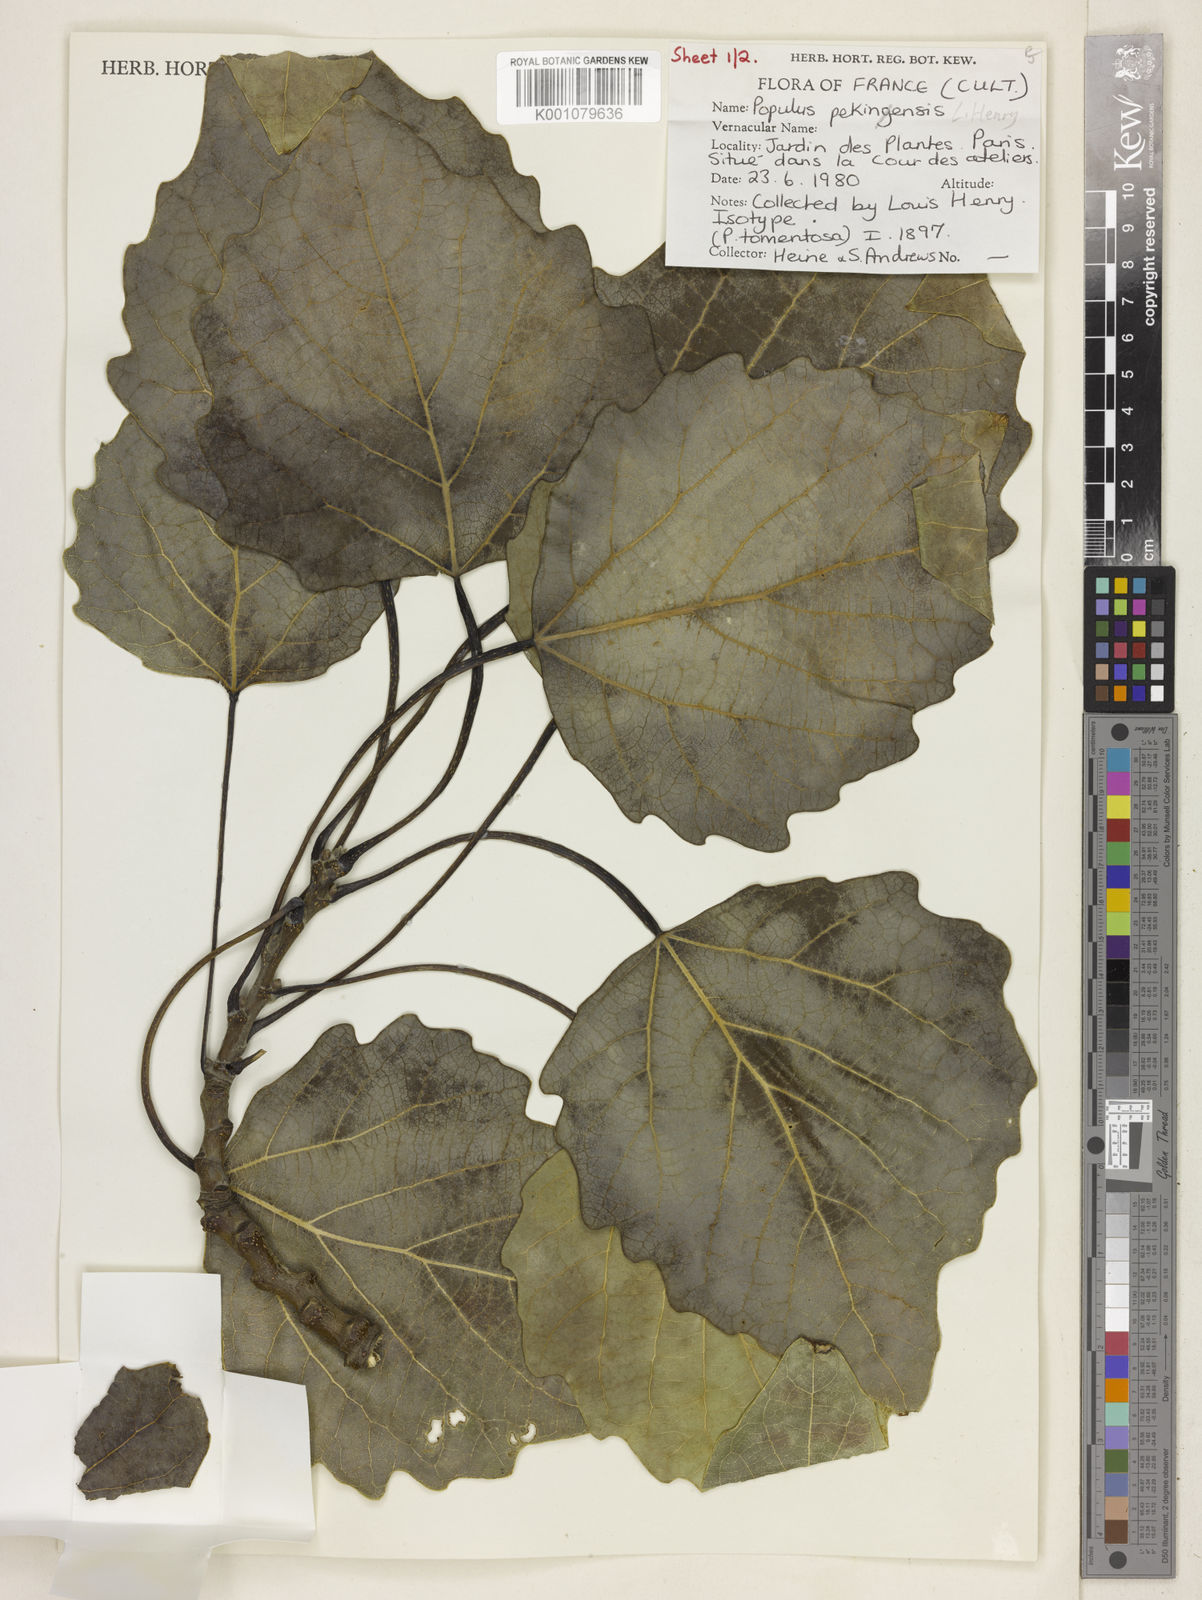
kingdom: Plantae
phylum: Tracheophyta
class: Magnoliopsida
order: Malpighiales
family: Salicaceae
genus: Populus
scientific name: Populus
